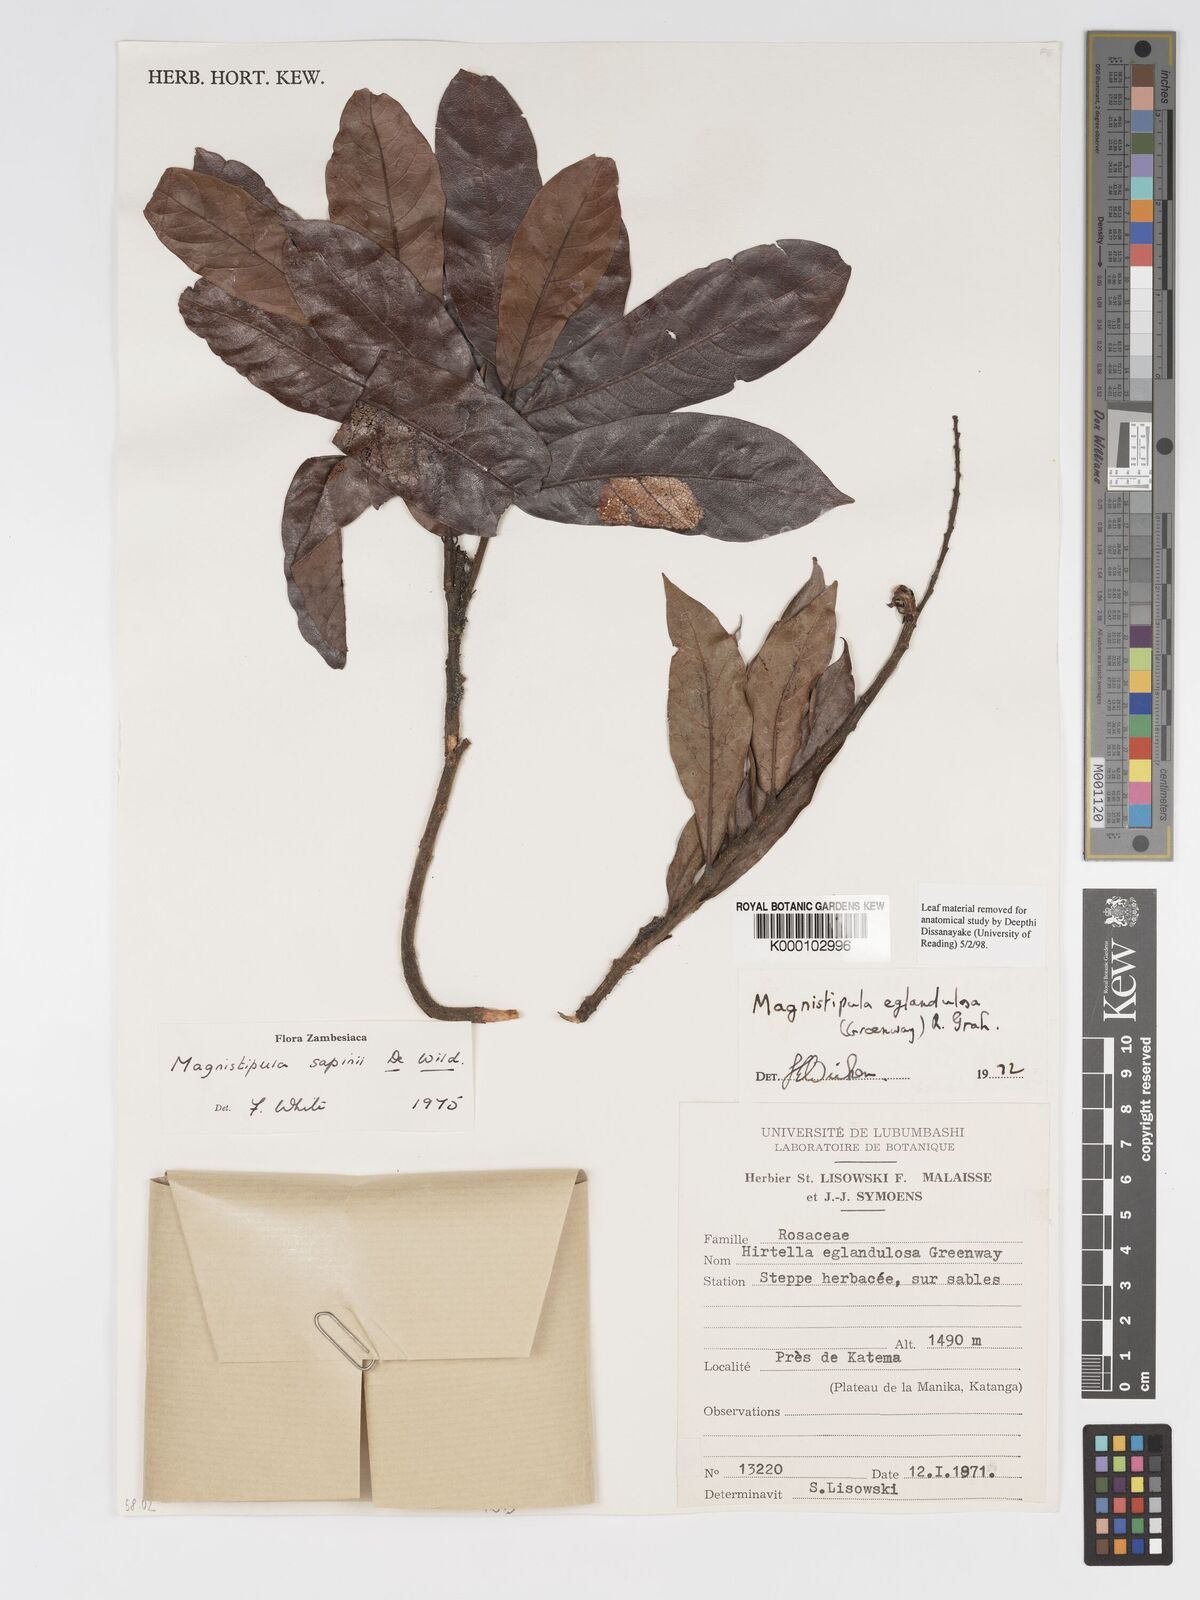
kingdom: Plantae
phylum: Tracheophyta
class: Magnoliopsida
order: Malpighiales
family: Chrysobalanaceae
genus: Magnistipula
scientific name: Magnistipula sapinii
